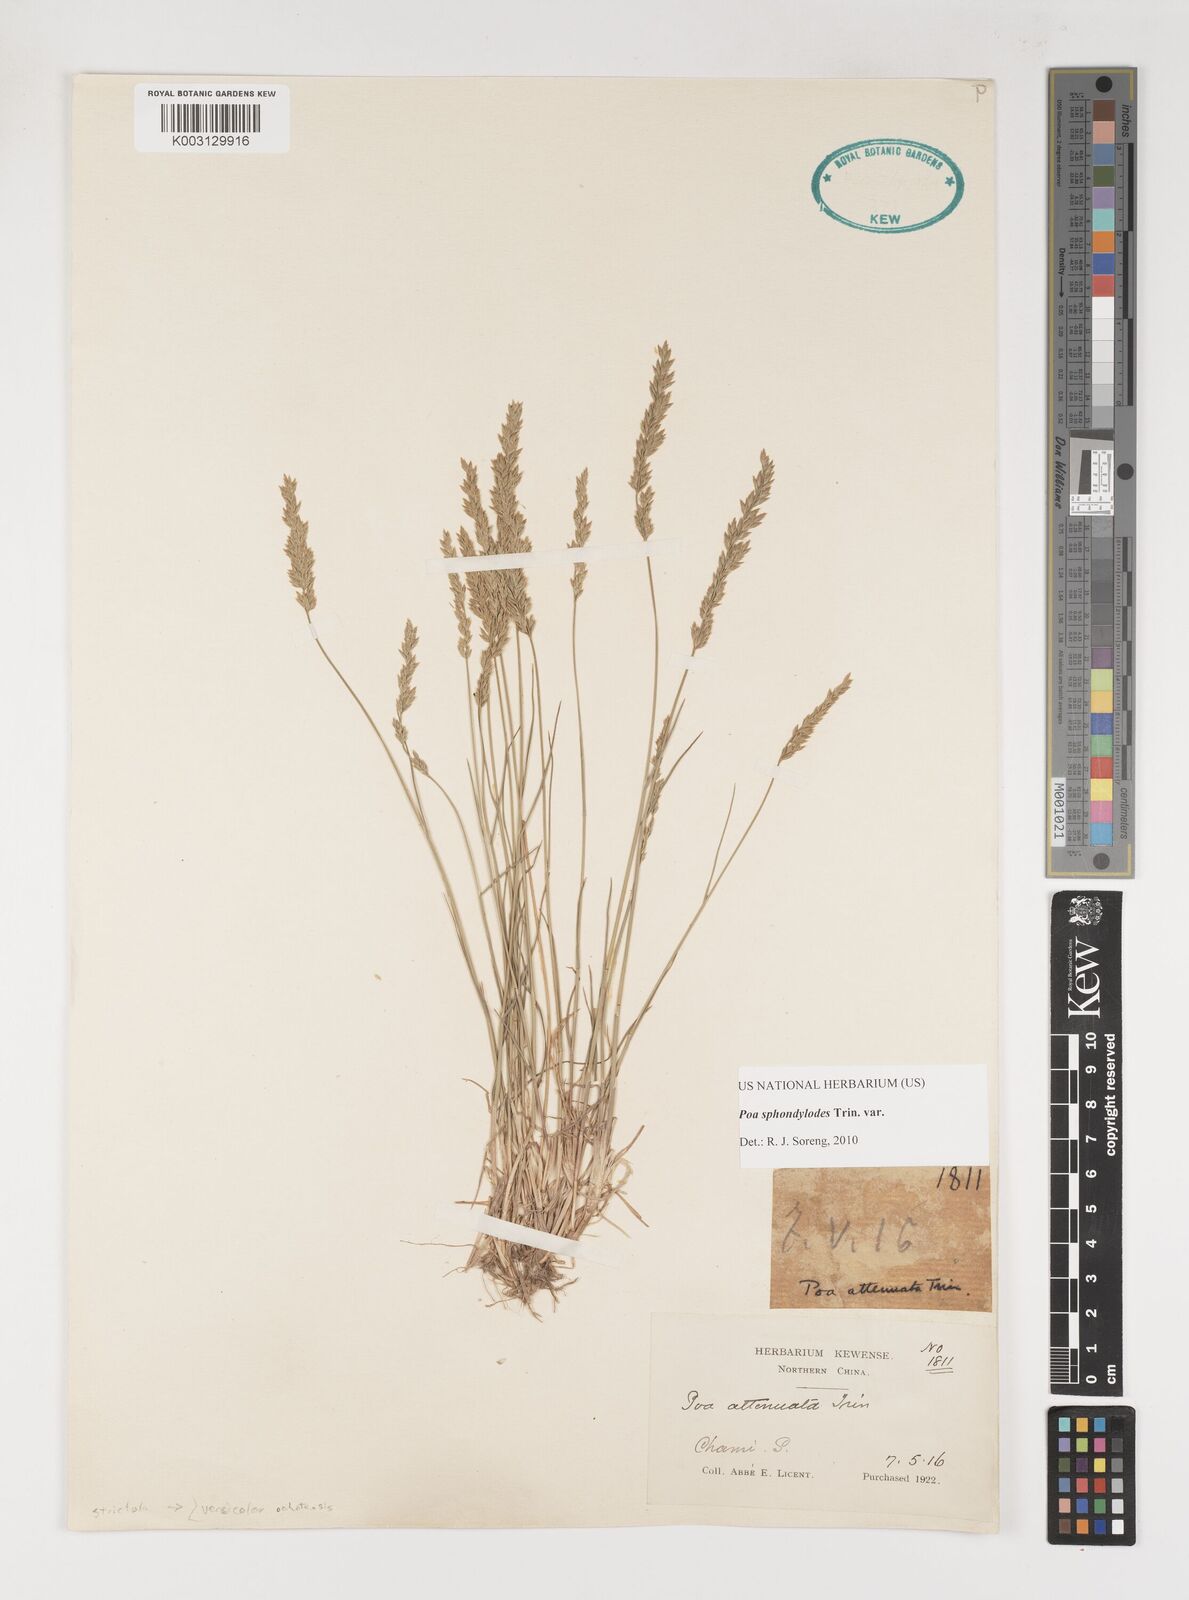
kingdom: Plantae
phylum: Tracheophyta
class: Liliopsida
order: Poales
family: Poaceae
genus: Poa
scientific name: Poa sphondylodes
